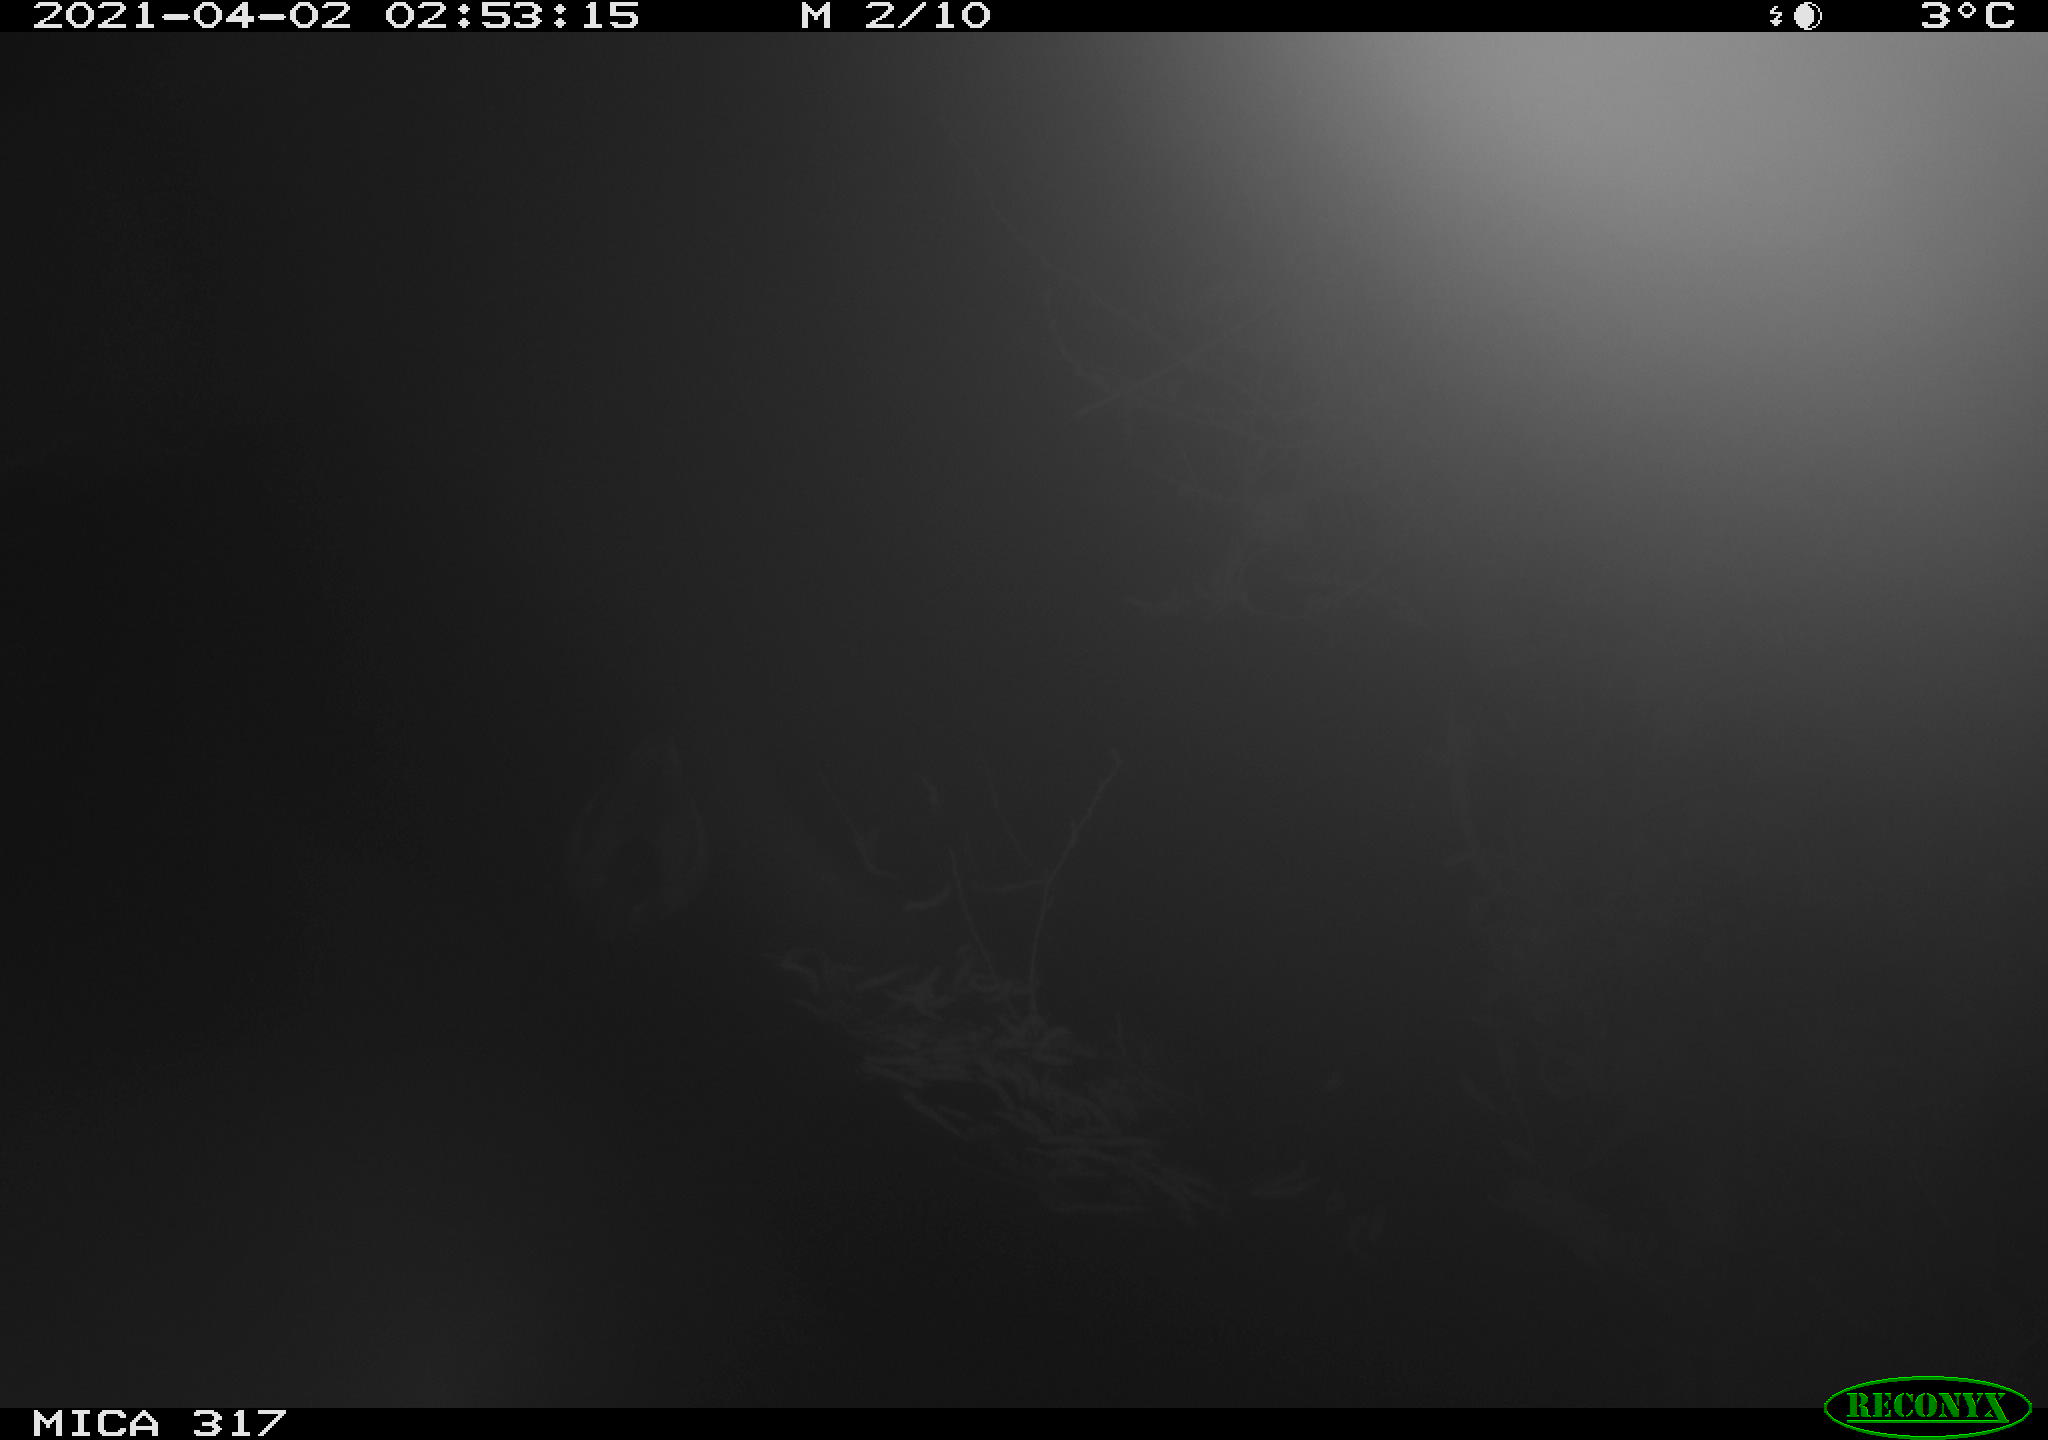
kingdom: Animalia
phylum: Chordata
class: Aves
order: Anseriformes
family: Anatidae
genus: Anas
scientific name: Anas platyrhynchos
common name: Mallard
